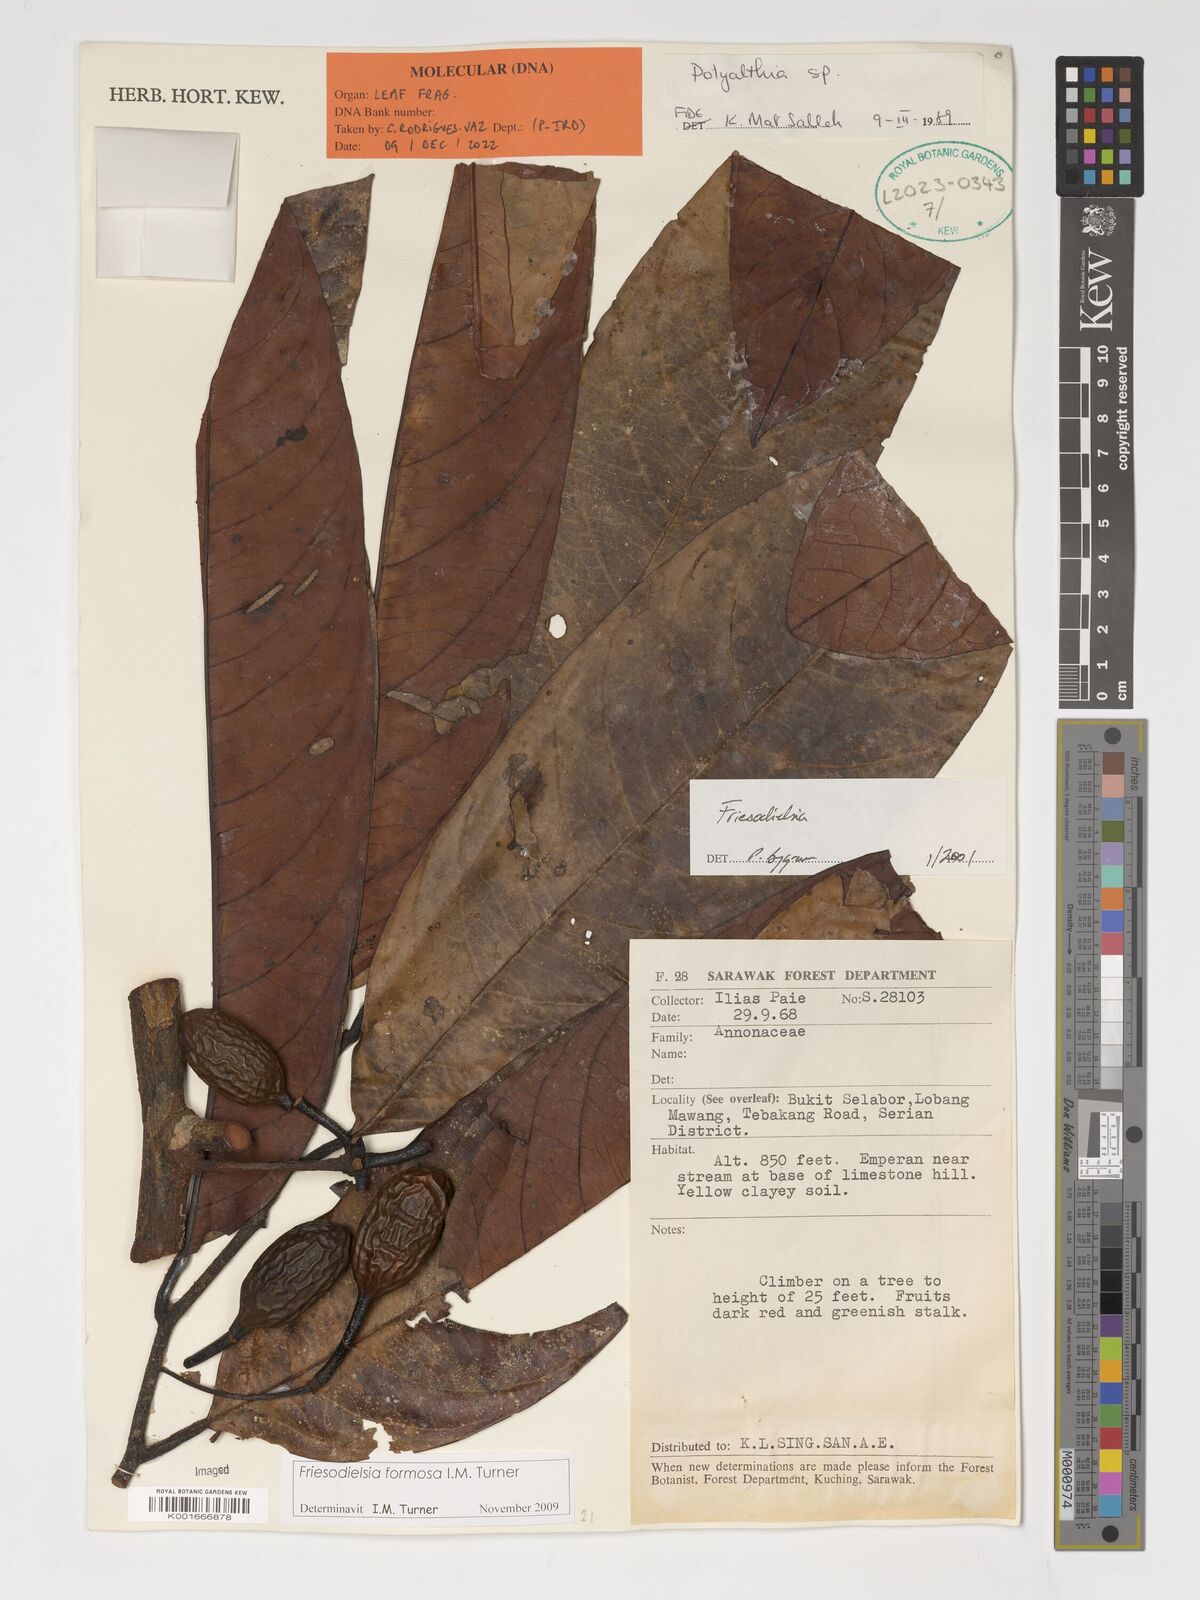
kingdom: Plantae
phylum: Tracheophyta
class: Magnoliopsida
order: Magnoliales
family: Annonaceae
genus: Friesodielsia
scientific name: Friesodielsia formosa
